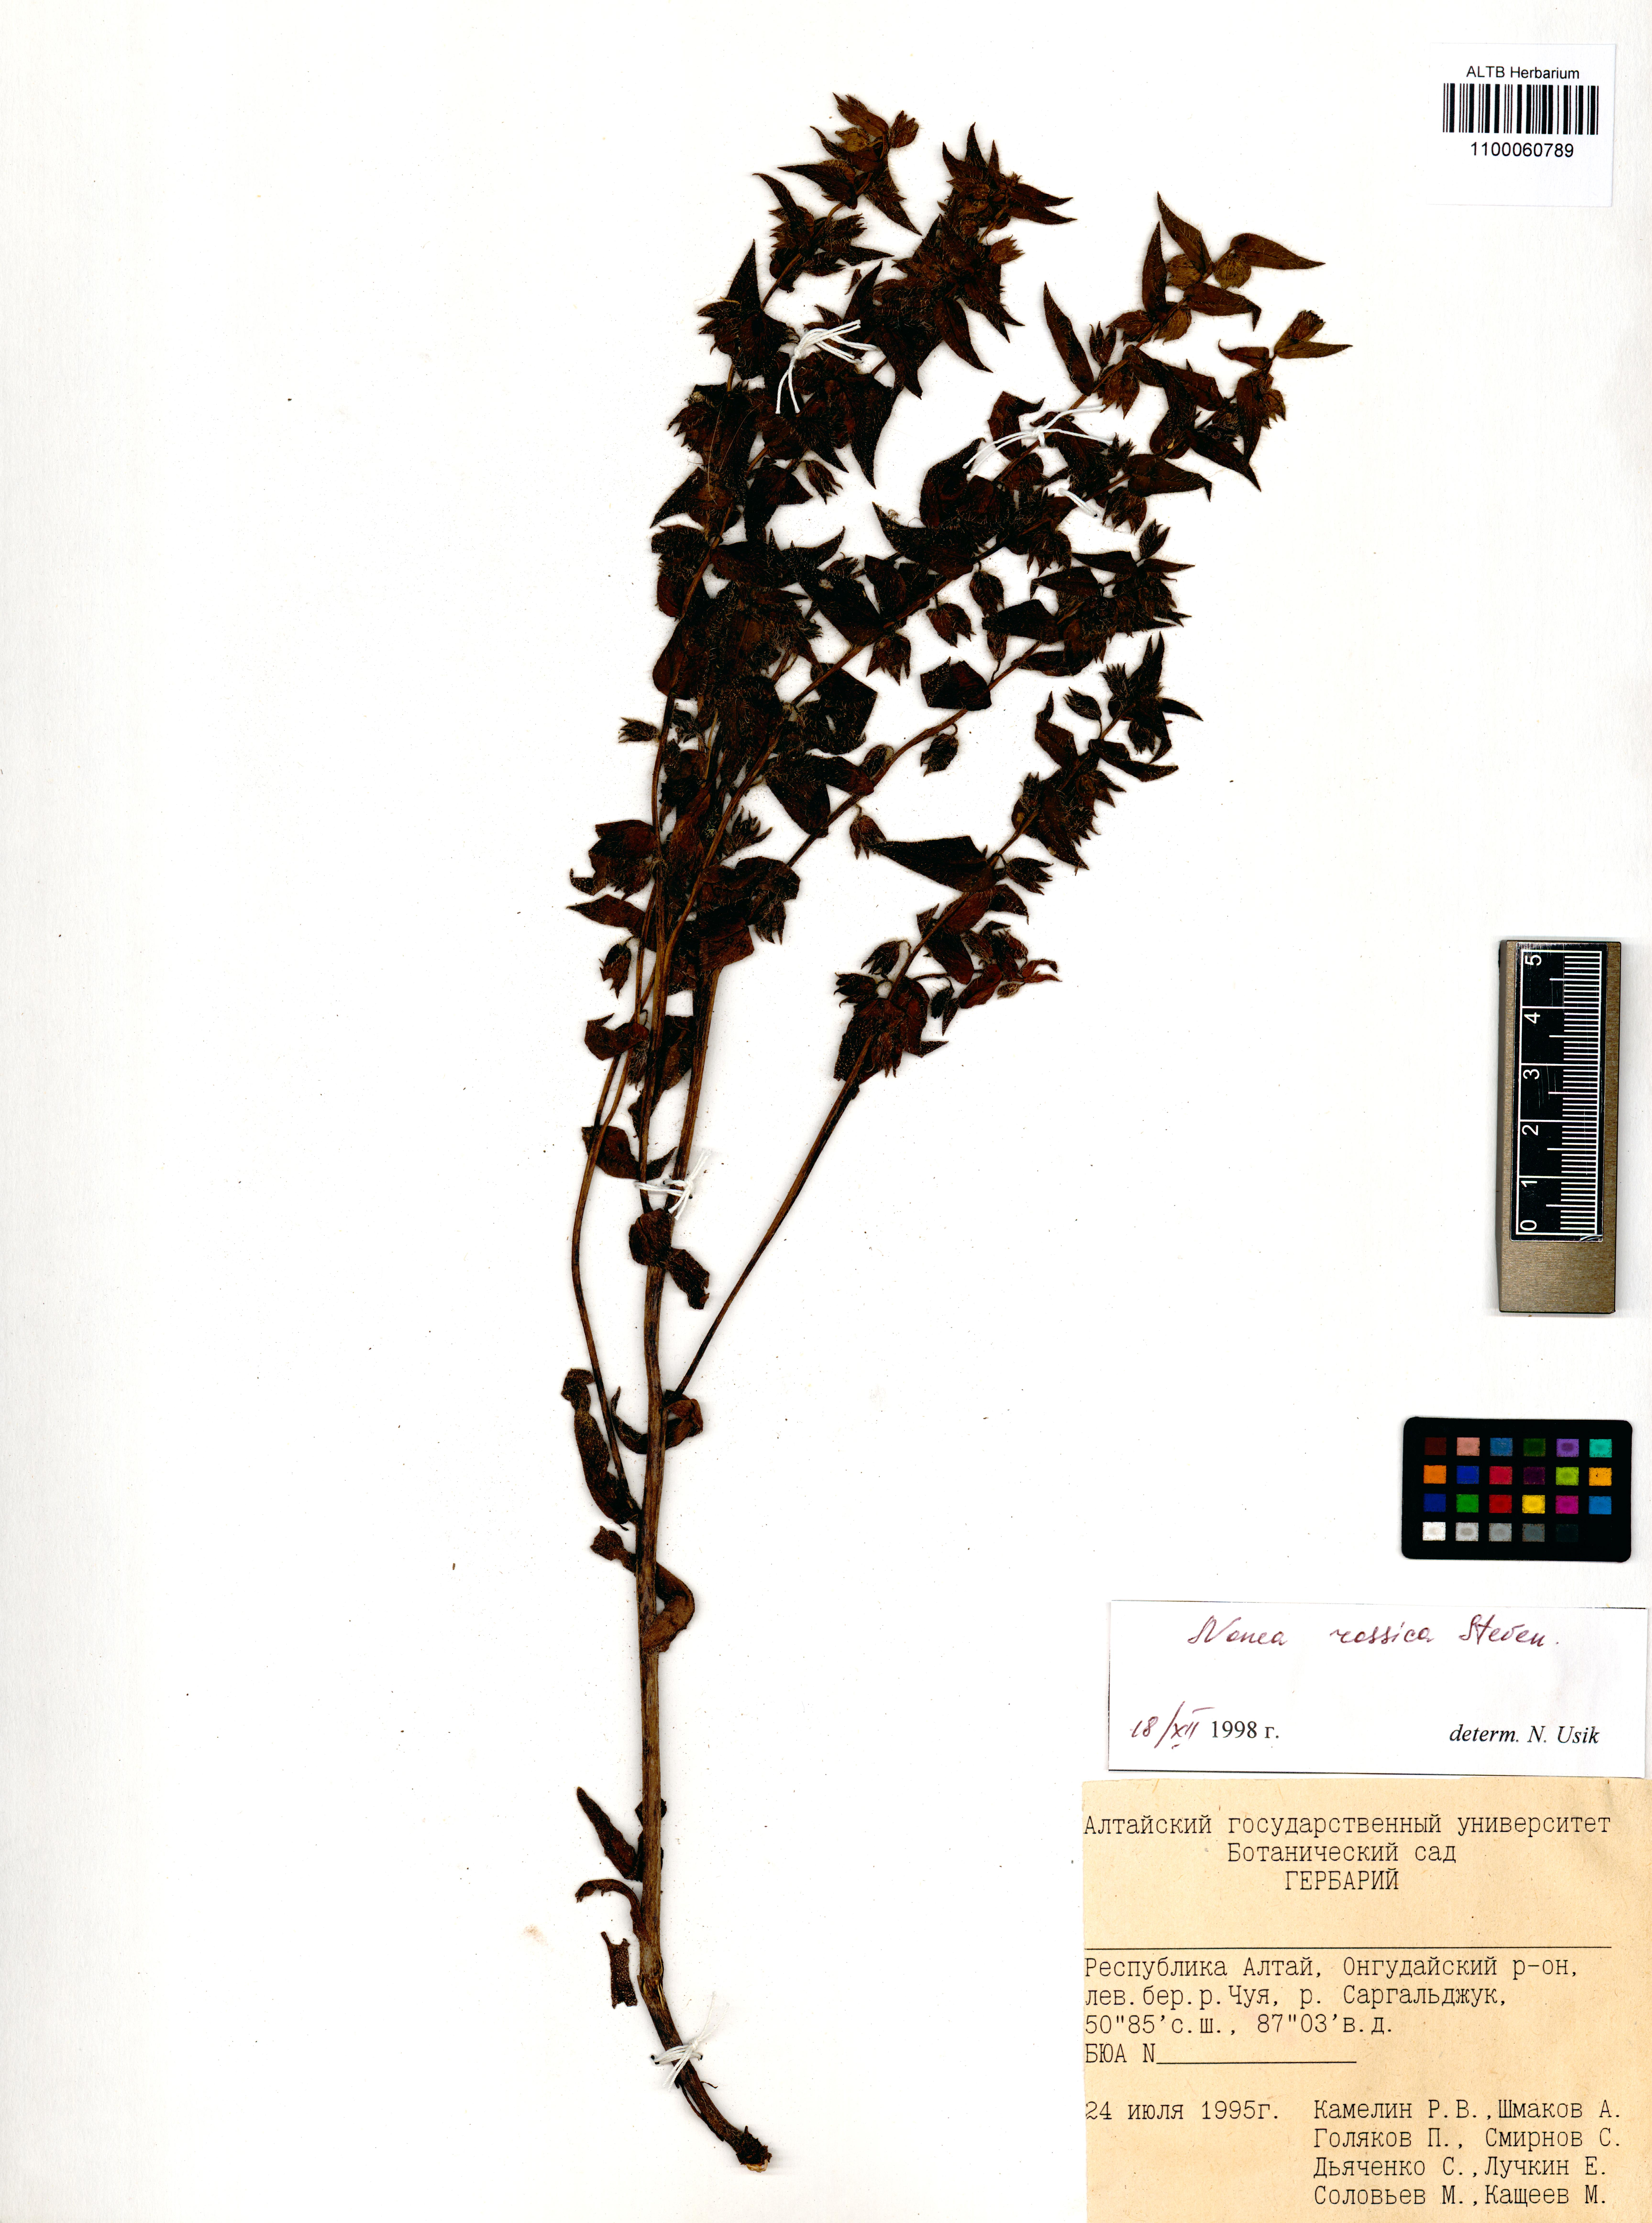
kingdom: Plantae
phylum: Tracheophyta
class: Magnoliopsida
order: Boraginales
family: Boraginaceae
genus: Nonea
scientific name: Nonea pulla
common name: Brown nonea
